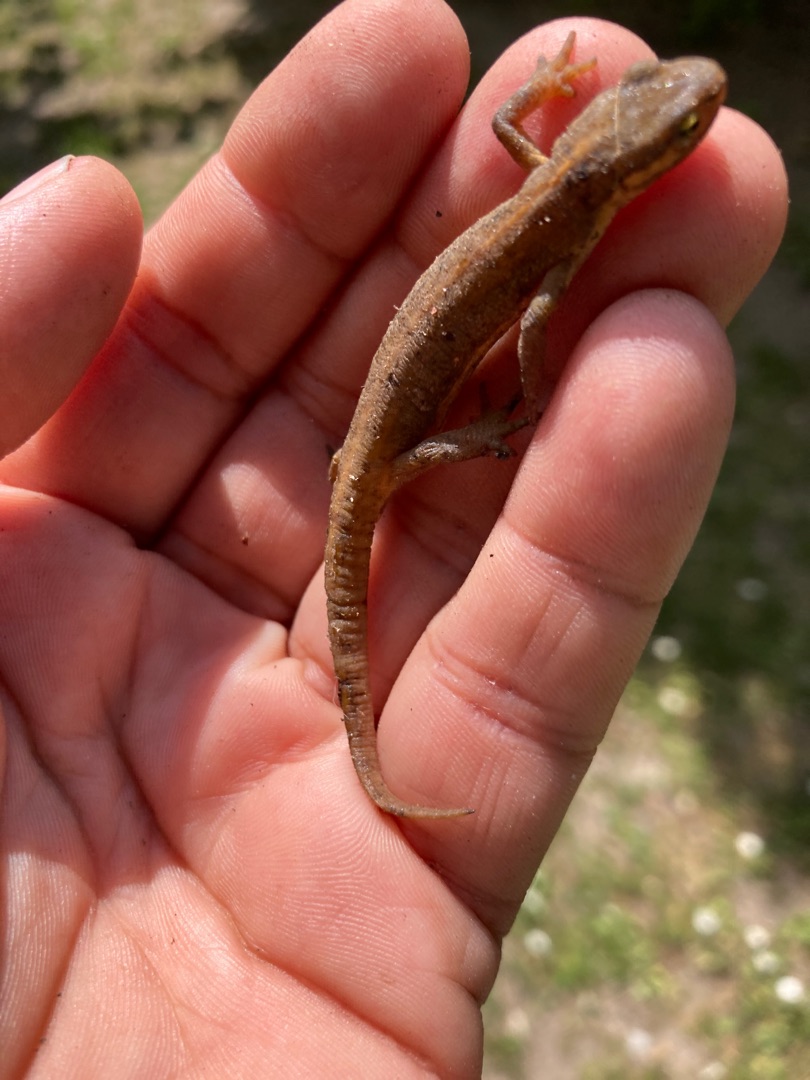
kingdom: Animalia
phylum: Chordata
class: Amphibia
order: Caudata
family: Salamandridae
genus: Lissotriton
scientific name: Lissotriton vulgaris
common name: Lille vandsalamander
